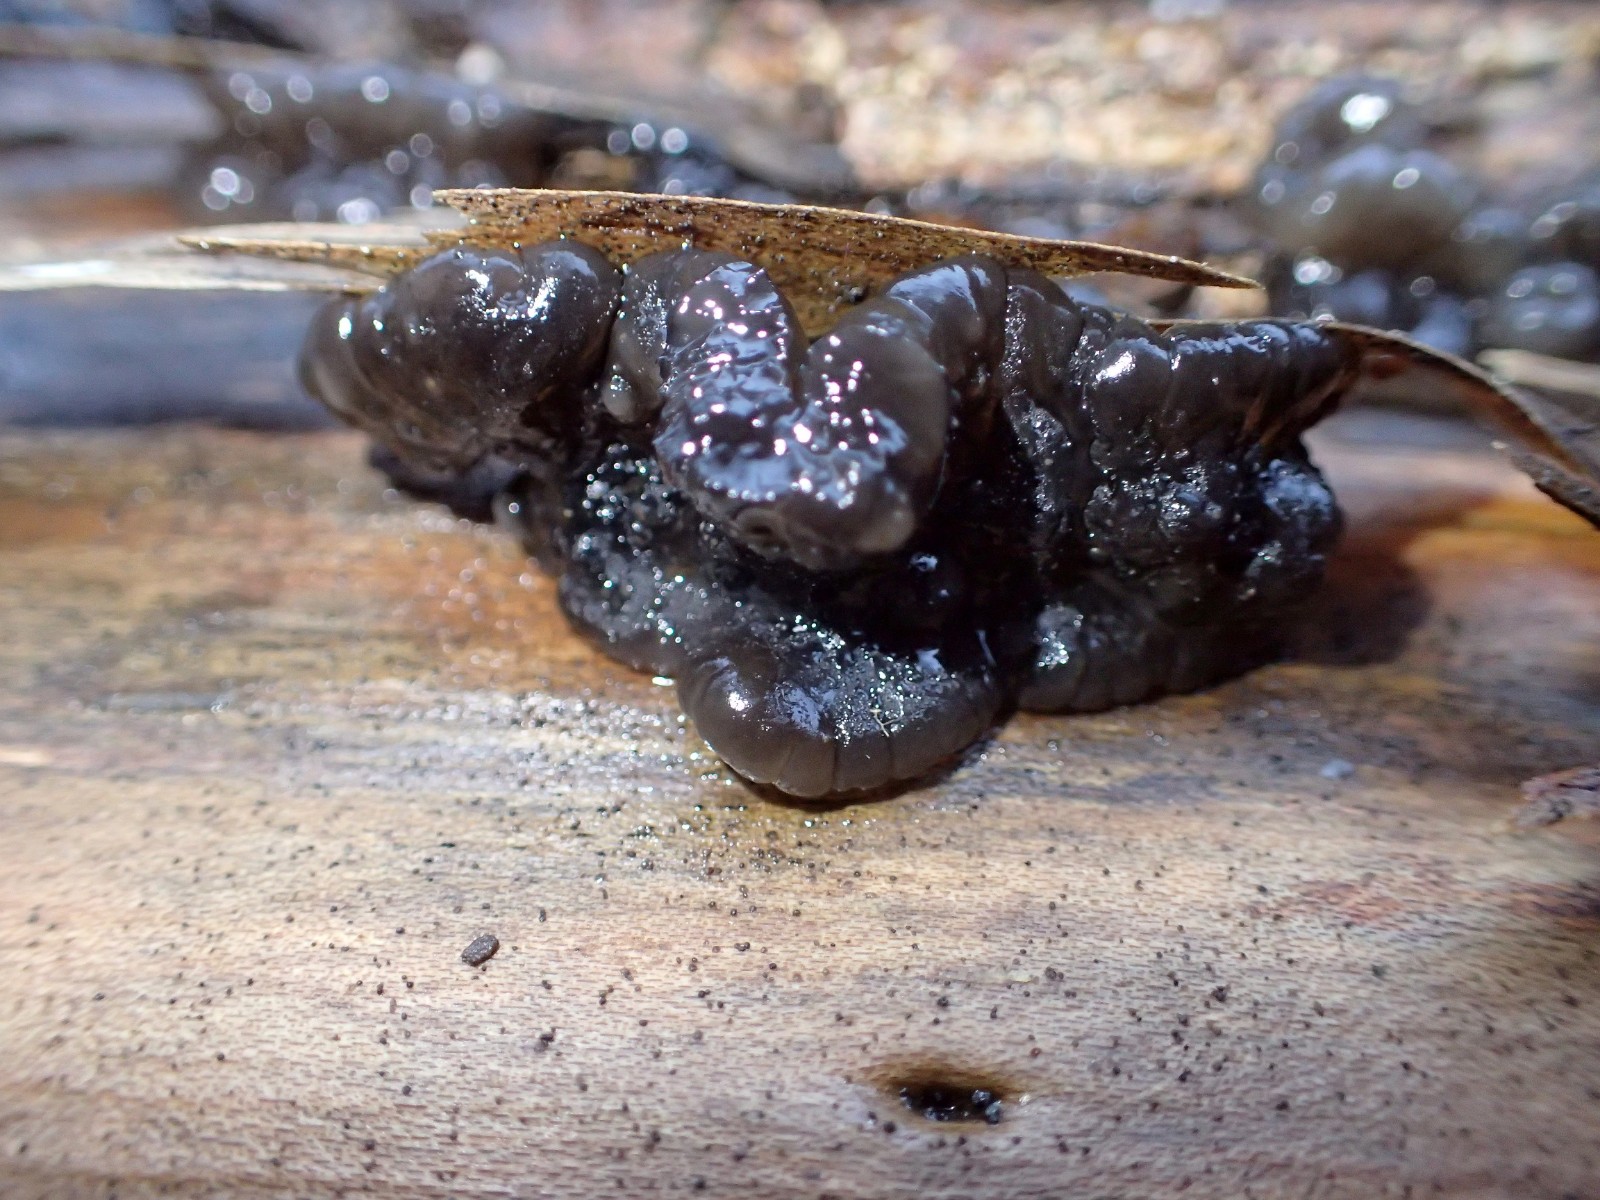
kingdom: Fungi
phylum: Basidiomycota
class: Agaricomycetes
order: Auriculariales
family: Auriculariaceae
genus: Exidia
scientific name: Exidia nigricans
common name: almindelig bævretop
